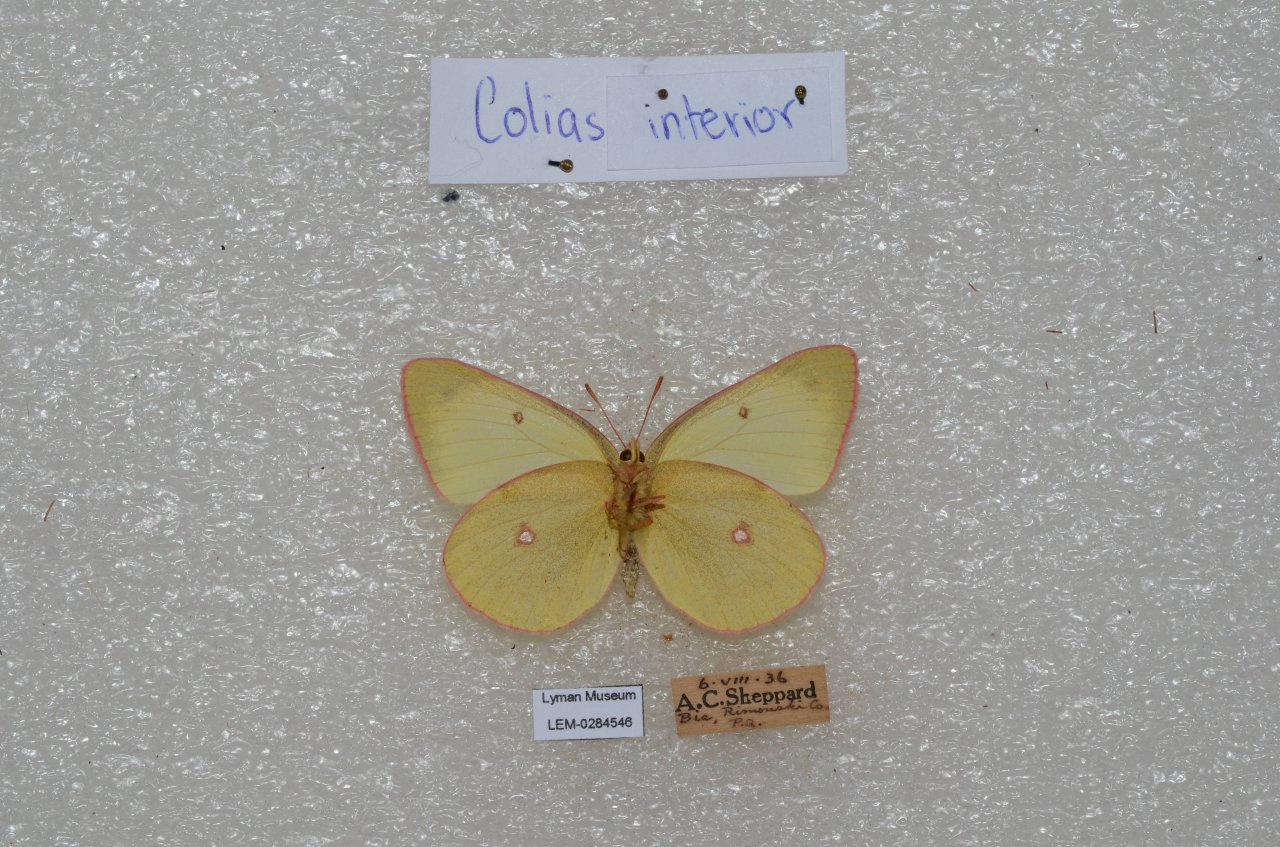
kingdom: Animalia
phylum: Arthropoda
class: Insecta
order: Lepidoptera
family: Pieridae
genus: Colias
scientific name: Colias interior
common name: Pink-edged Sulphur
